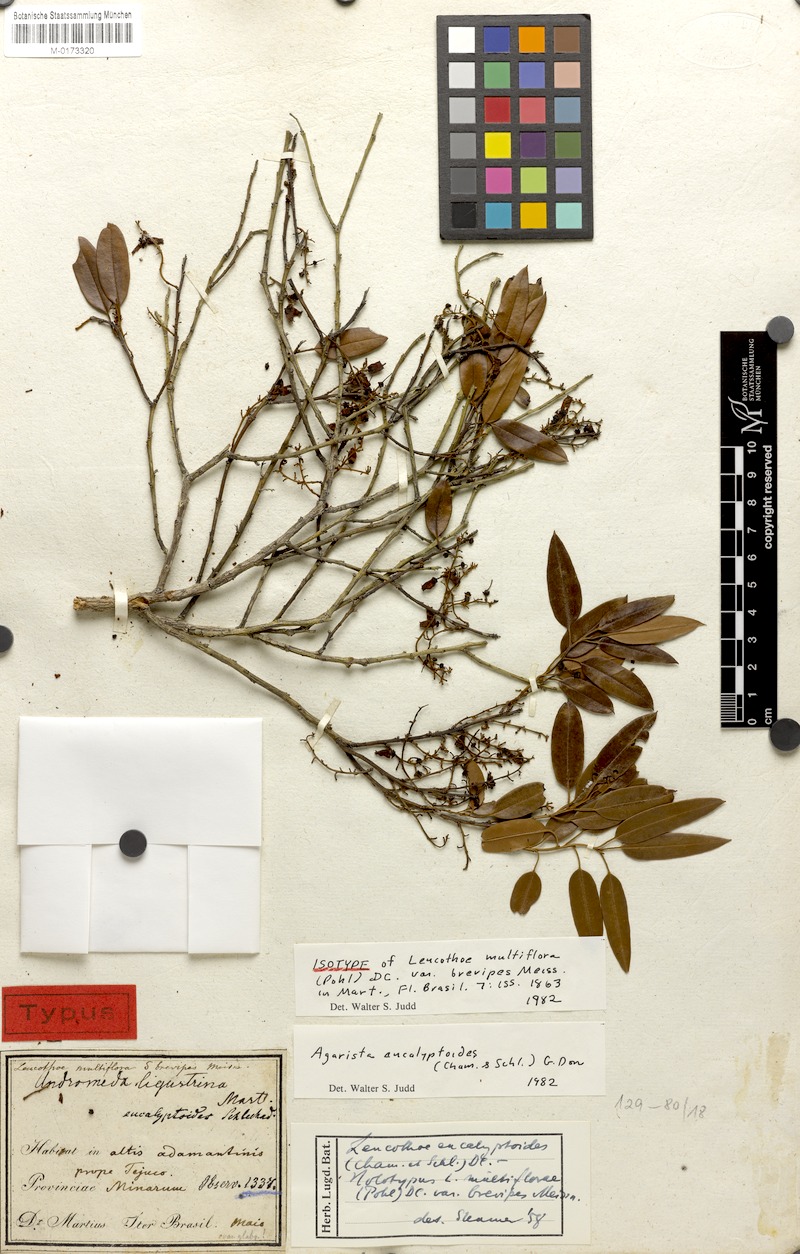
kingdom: Plantae
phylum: Tracheophyta
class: Magnoliopsida
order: Ericales
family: Ericaceae
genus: Agarista
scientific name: Agarista eucalyptoides
